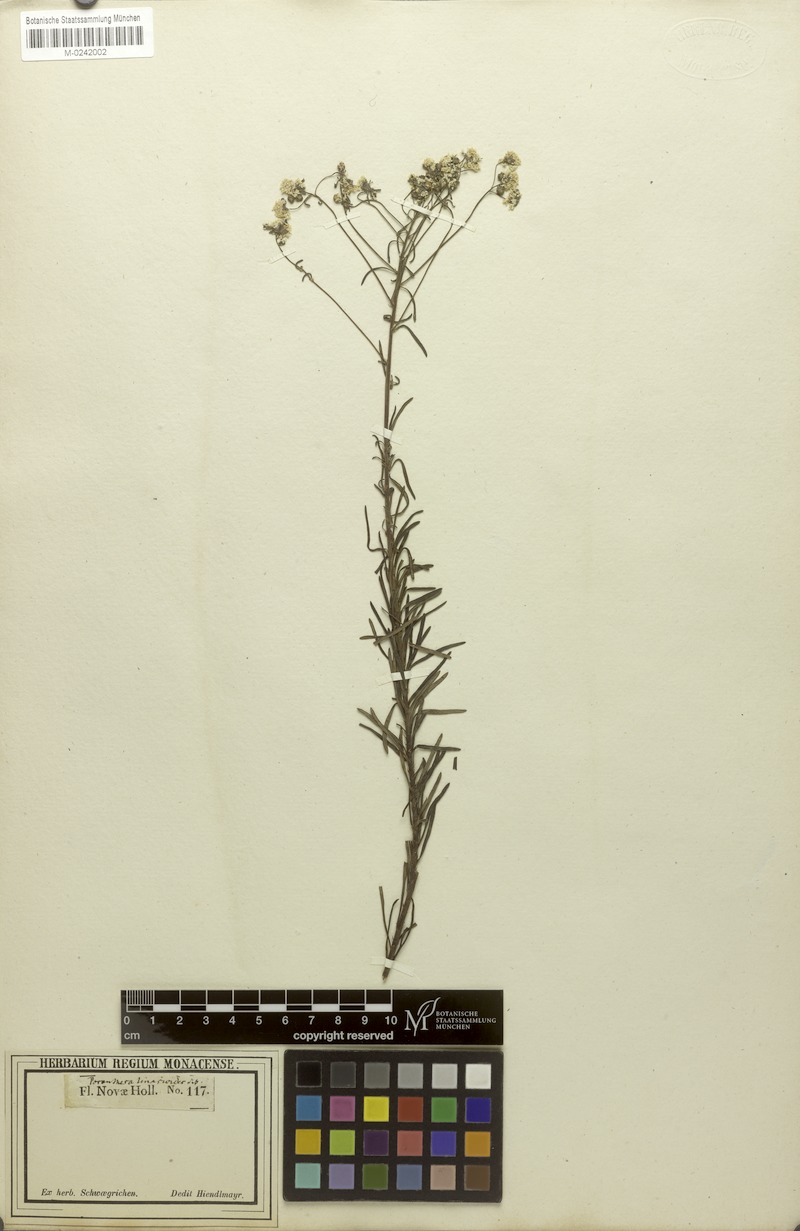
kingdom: Plantae
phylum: Tracheophyta
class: Magnoliopsida
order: Malpighiales
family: Phyllanthaceae
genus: Poranthera
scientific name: Poranthera corymbosa
